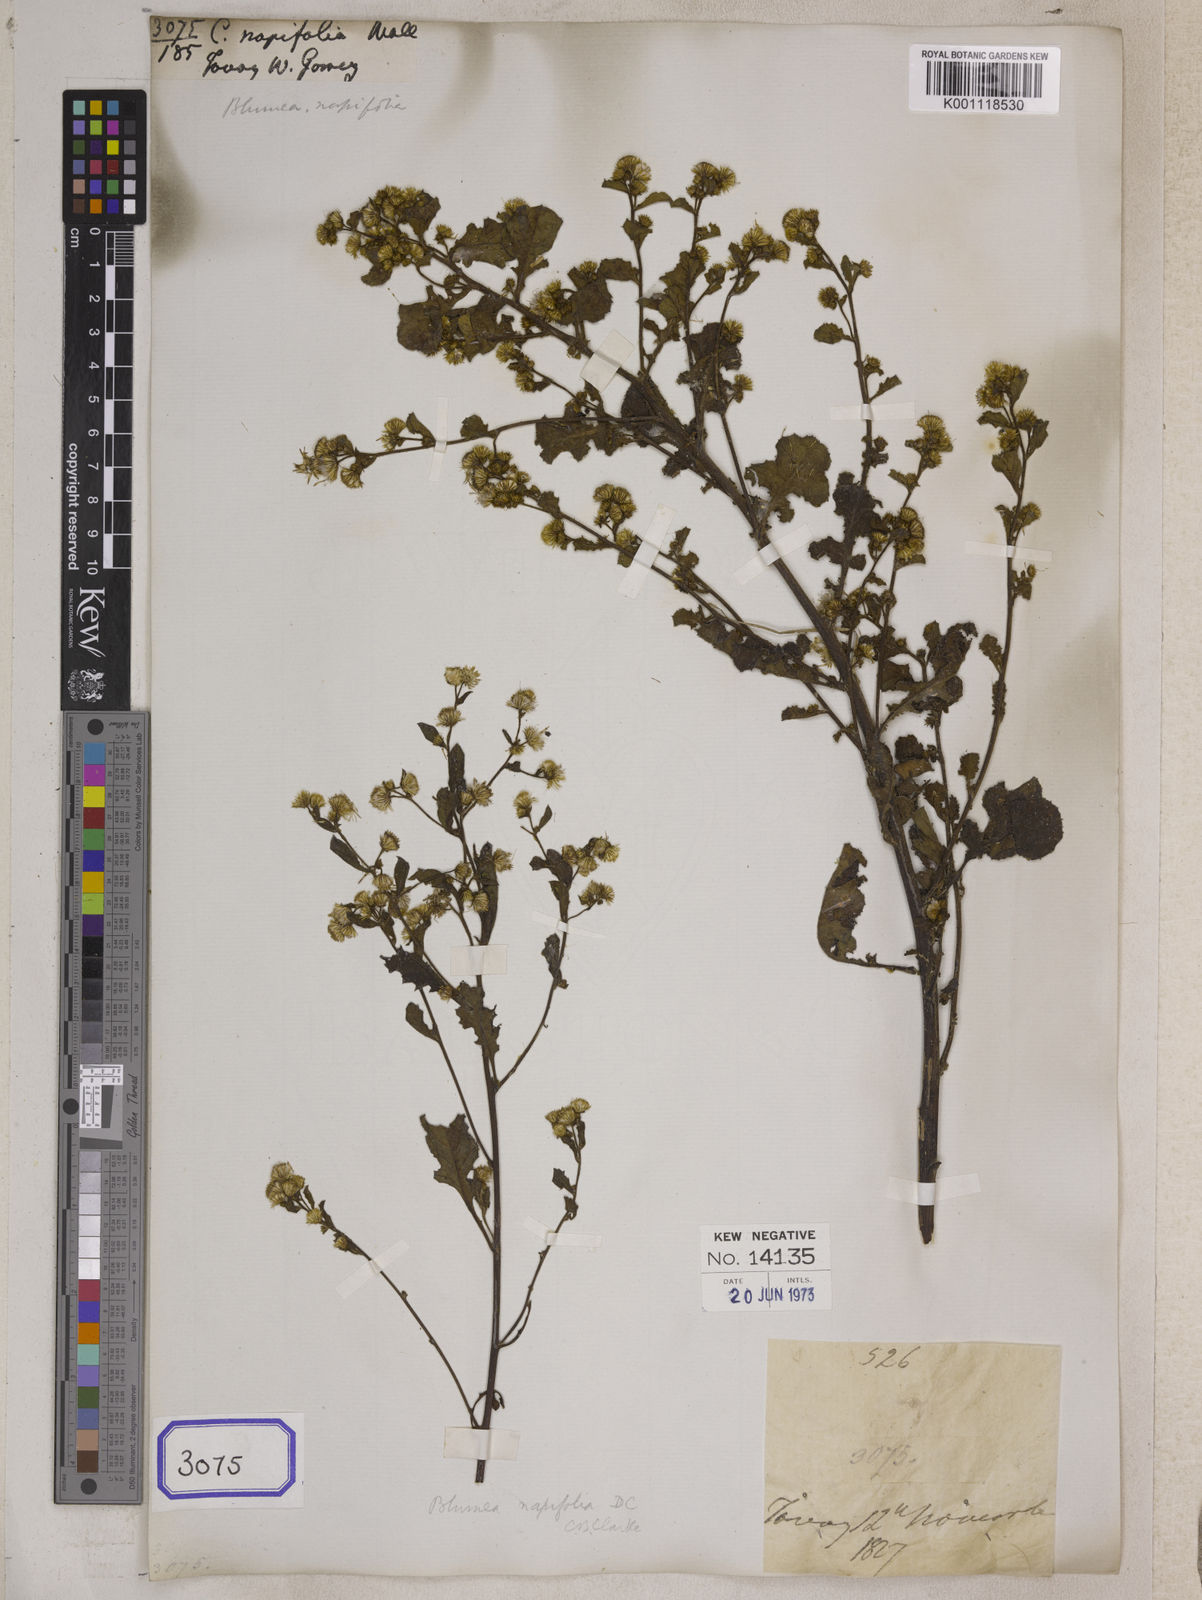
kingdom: Plantae
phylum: Tracheophyta
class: Magnoliopsida
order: Asterales
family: Asteraceae
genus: Pluchea
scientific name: Pluchea paniculata
